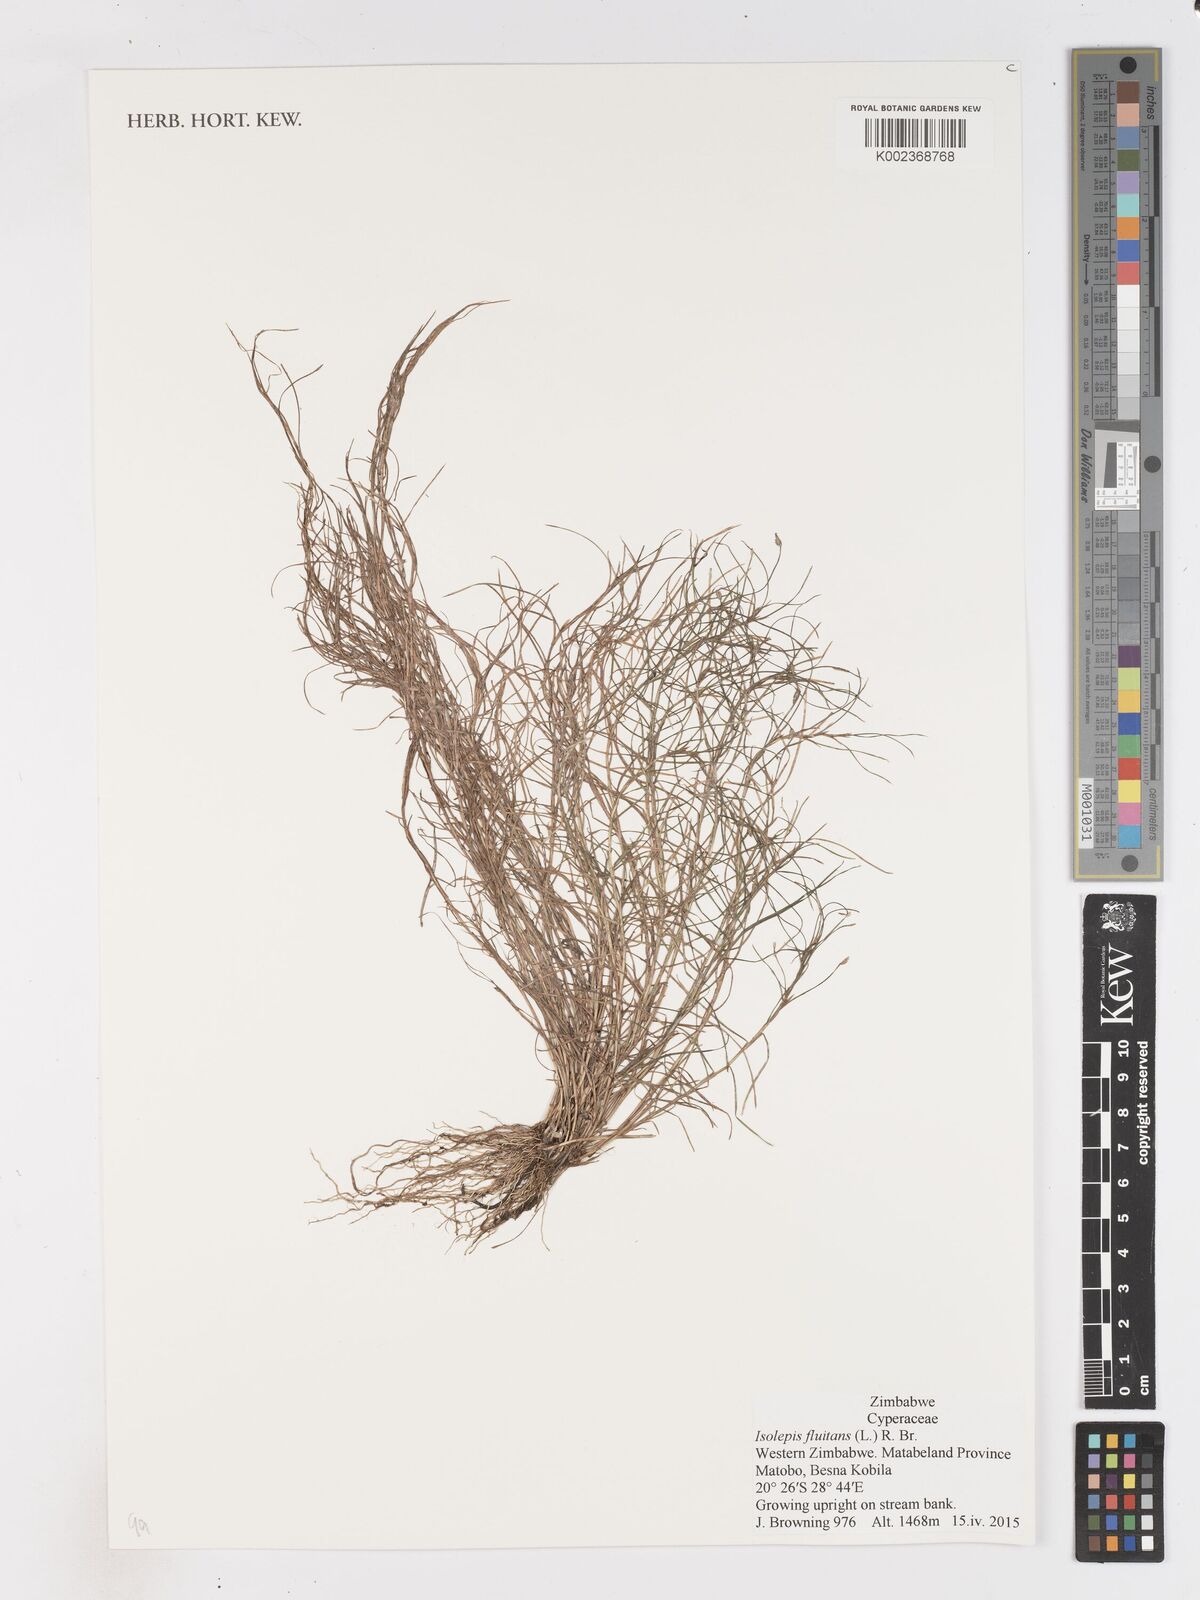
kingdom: Plantae
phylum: Tracheophyta
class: Liliopsida
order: Poales
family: Cyperaceae
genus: Isolepis
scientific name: Isolepis fluitans
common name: Floating club-rush
